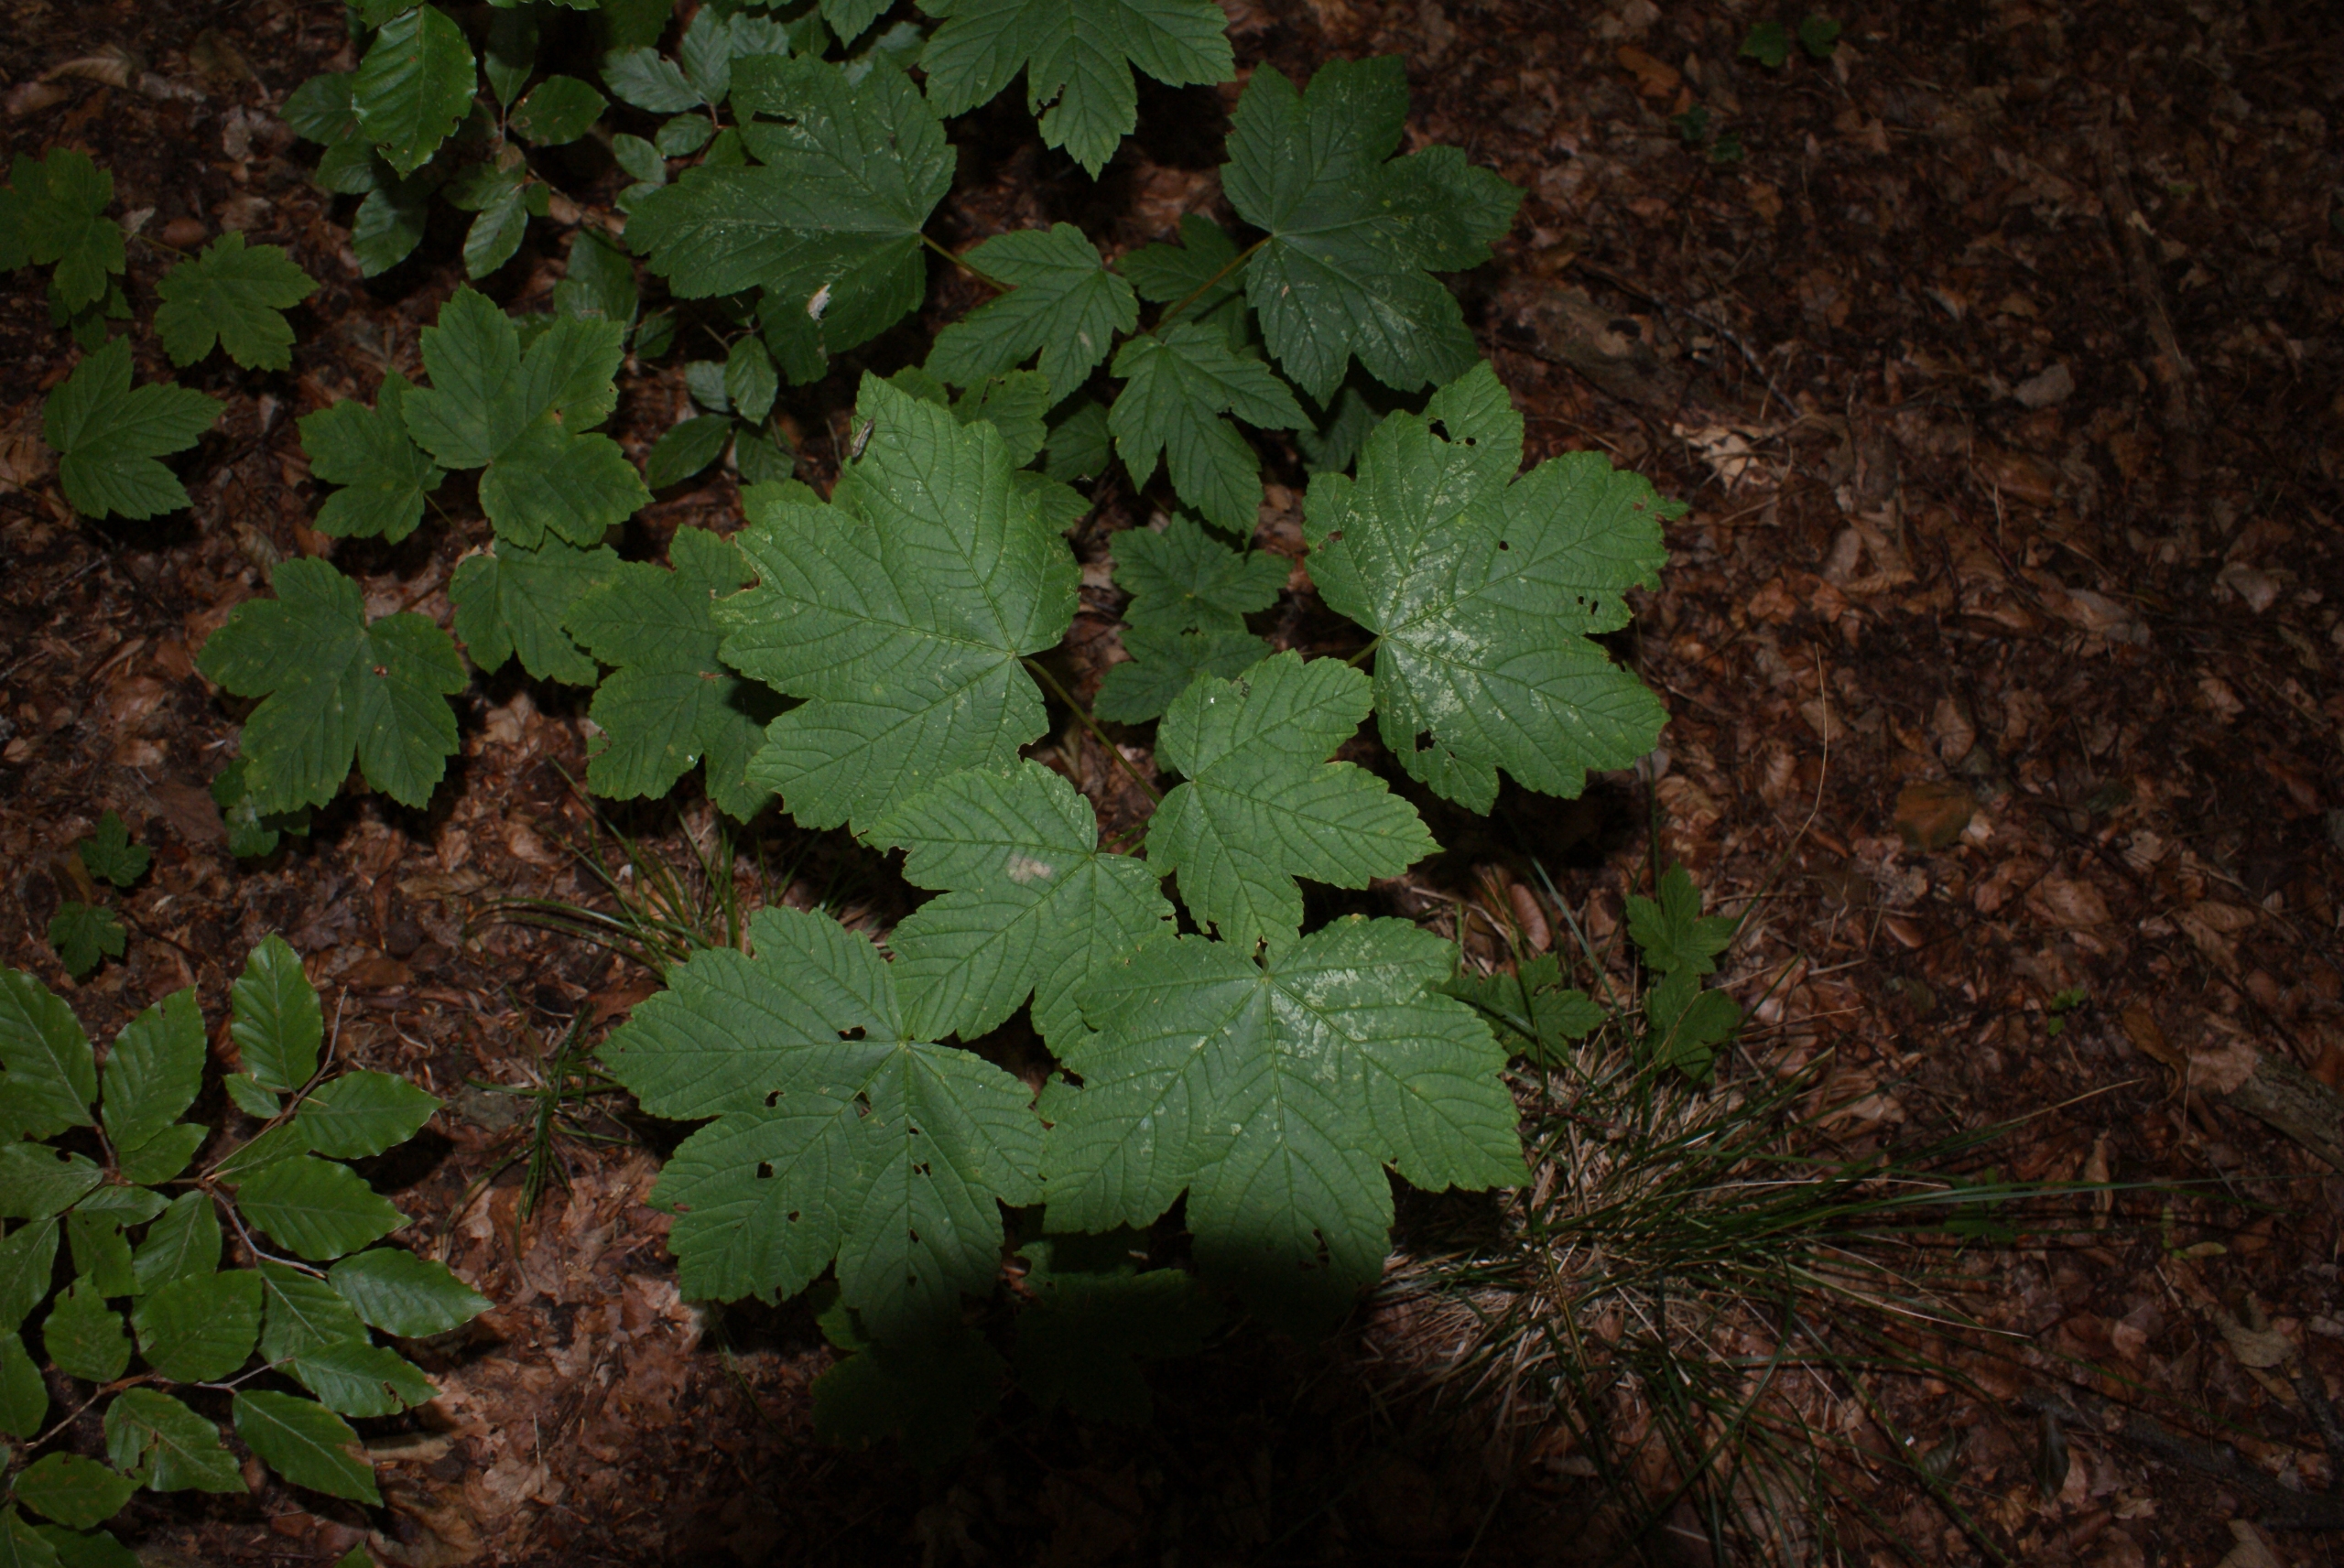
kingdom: Plantae
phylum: Tracheophyta
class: Magnoliopsida
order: Sapindales
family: Sapindaceae
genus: Acer
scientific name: Acer pseudoplatanus
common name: Ahorn
